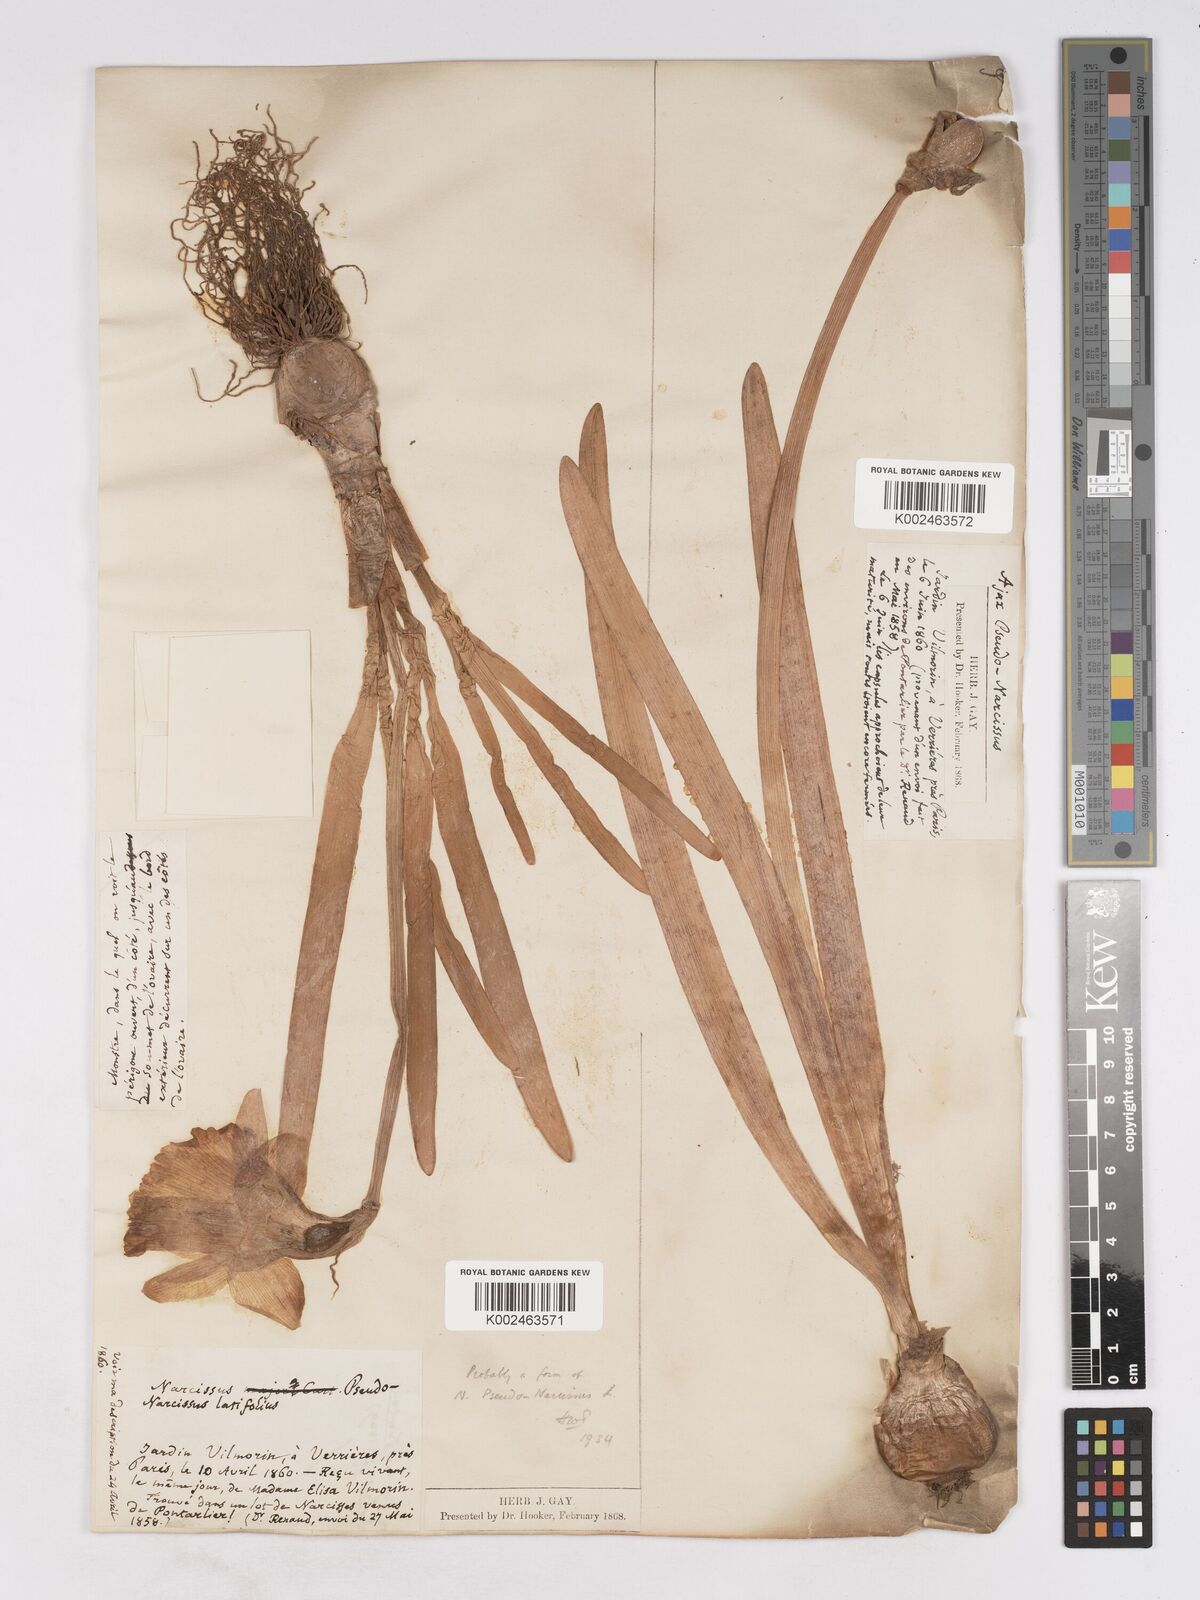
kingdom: Plantae
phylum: Tracheophyta
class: Liliopsida
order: Asparagales
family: Amaryllidaceae
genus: Narcissus
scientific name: Narcissus pseudonarcissus
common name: Daffodil
